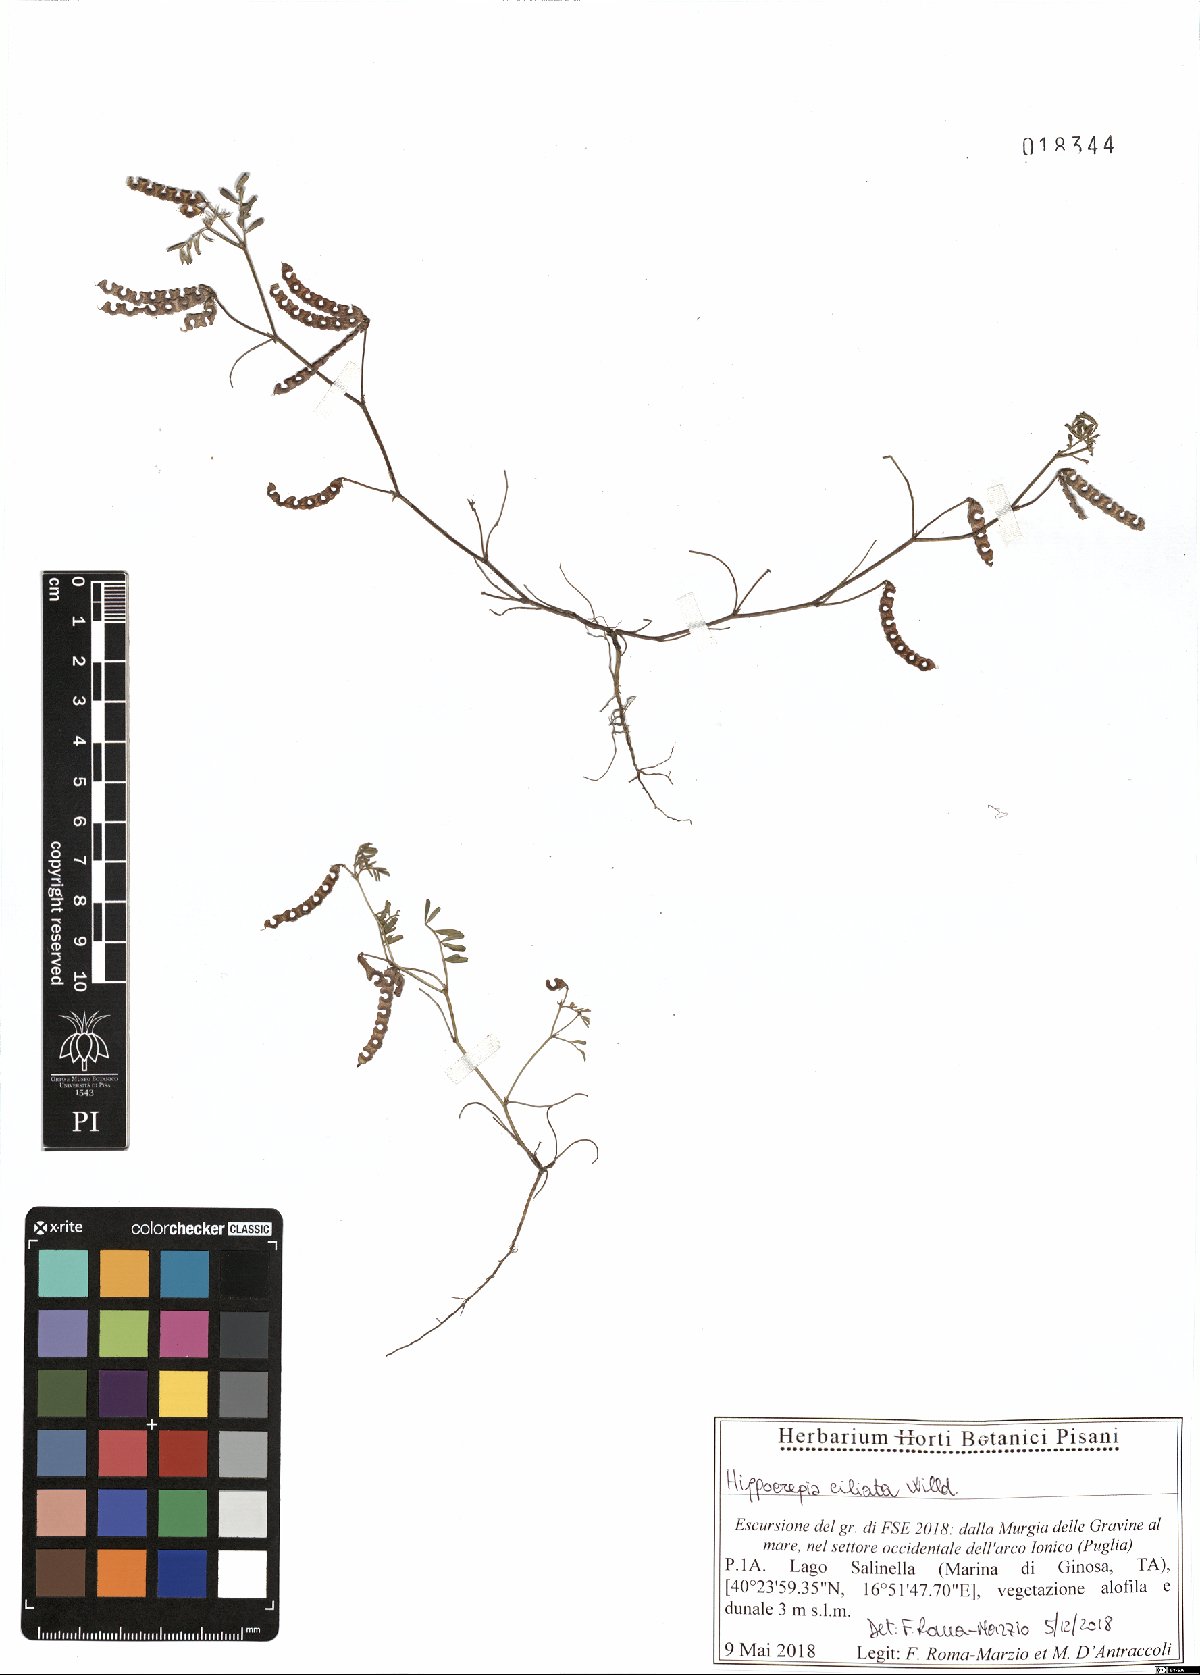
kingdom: Plantae
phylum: Tracheophyta
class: Magnoliopsida
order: Fabales
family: Fabaceae
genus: Hippocrepis
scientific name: Hippocrepis ciliata
